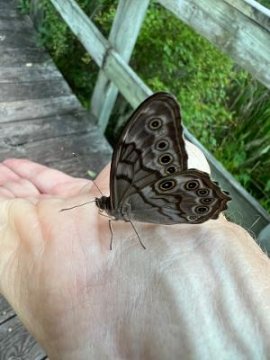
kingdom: Animalia
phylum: Arthropoda
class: Insecta
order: Lepidoptera
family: Nymphalidae
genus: Lethe
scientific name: Lethe creola
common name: Creole Pearly-Eye
